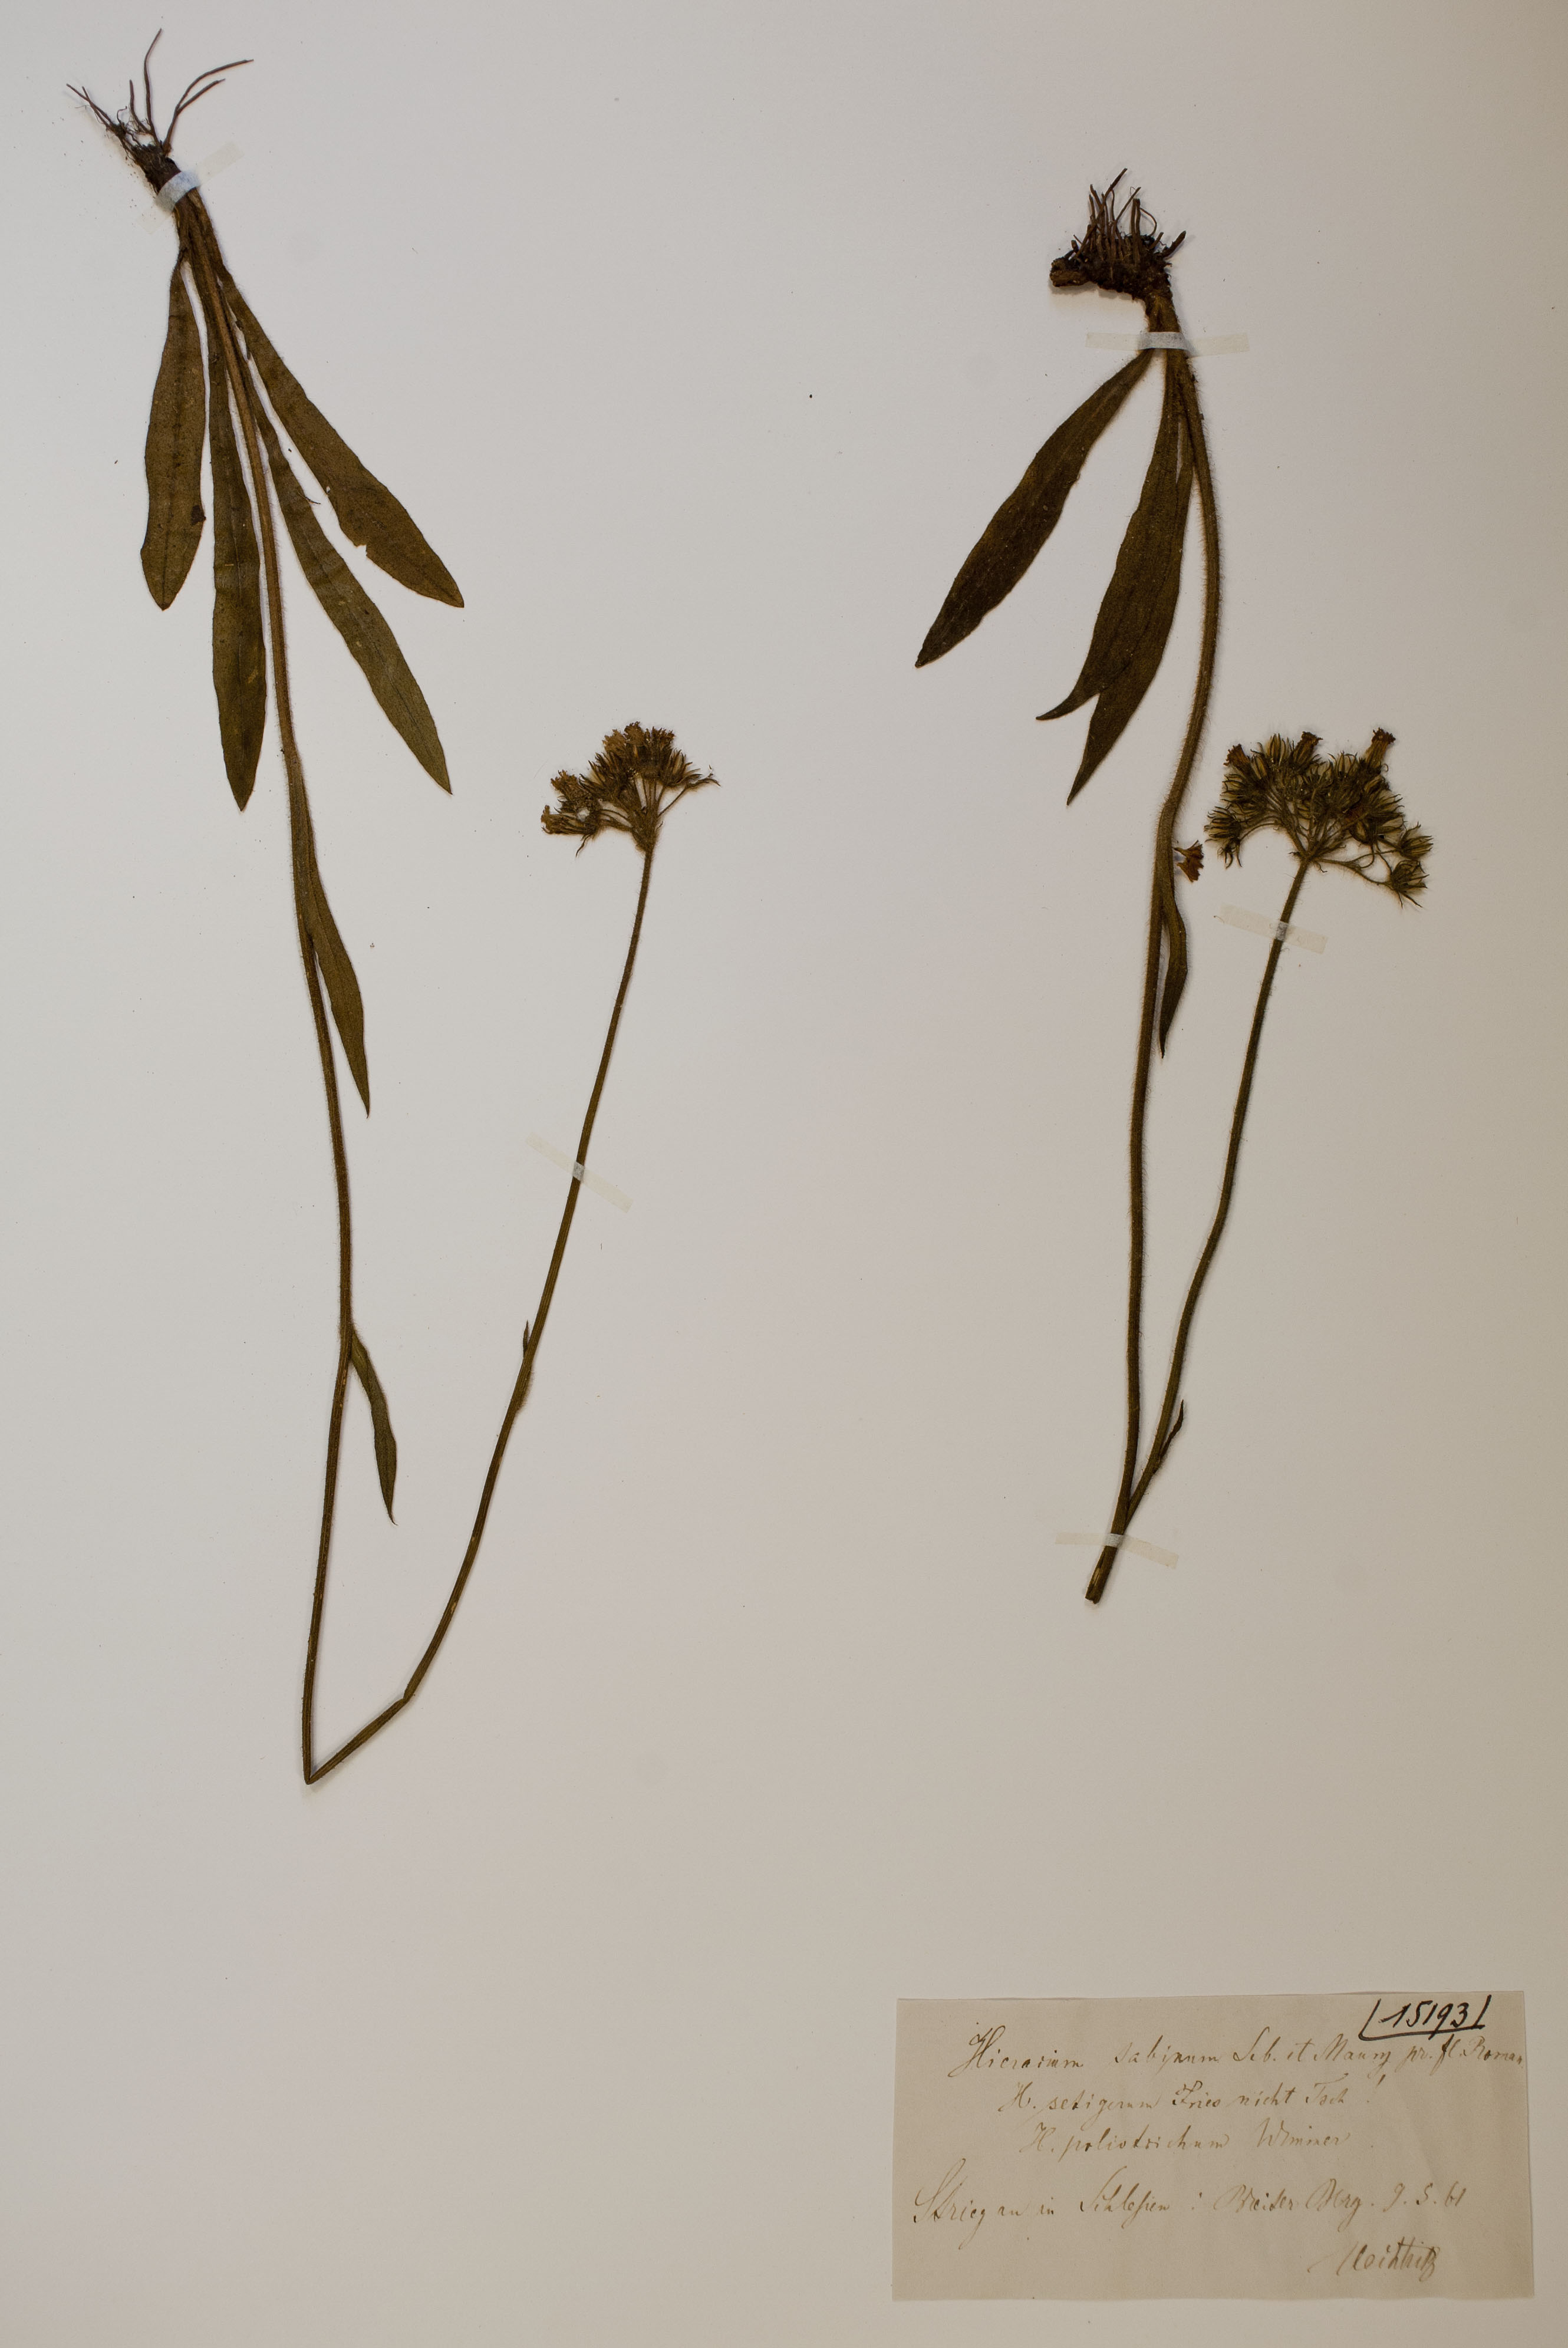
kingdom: Plantae
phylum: Tracheophyta
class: Magnoliopsida
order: Asterales
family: Asteraceae
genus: Pilosella
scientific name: Pilosella cymosa
